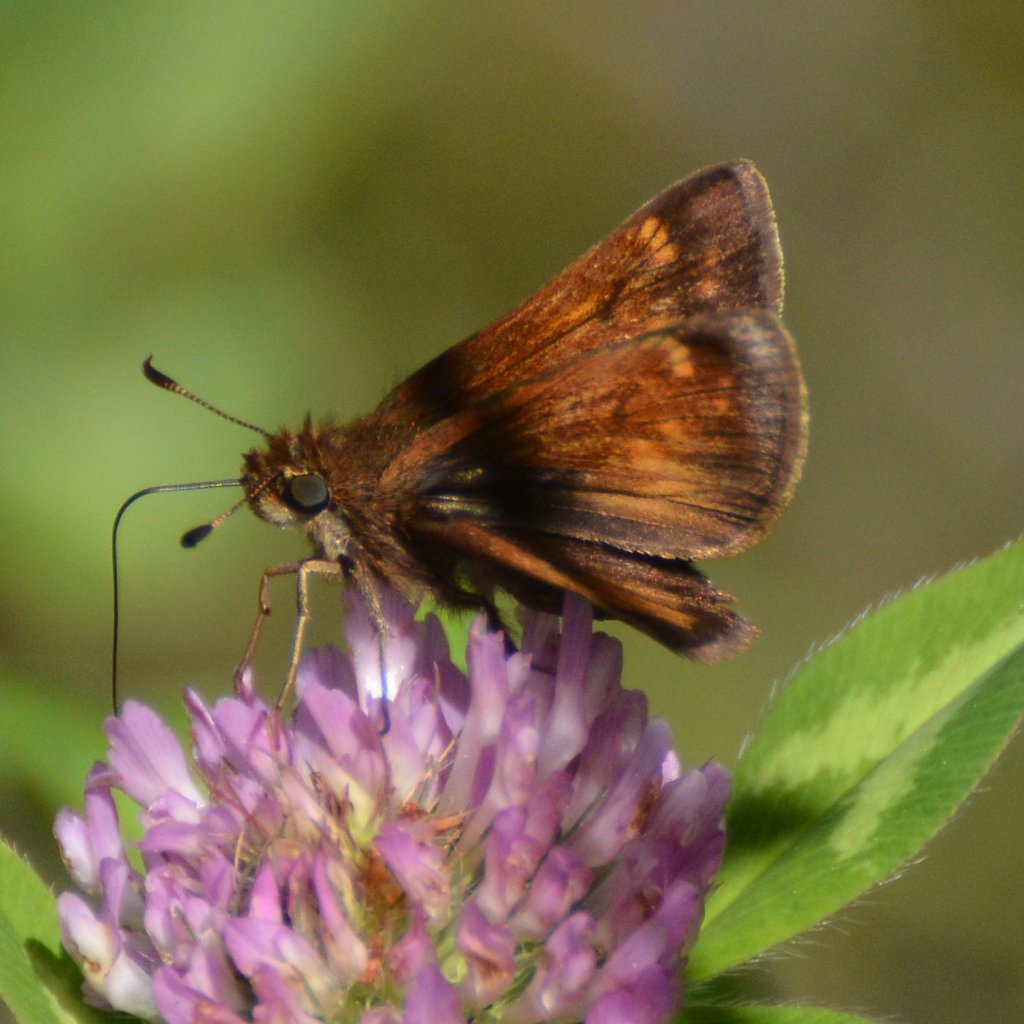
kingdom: Animalia
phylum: Arthropoda
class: Insecta
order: Lepidoptera
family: Hesperiidae
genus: Lon
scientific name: Lon hobomok
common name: Hobomok Skipper
